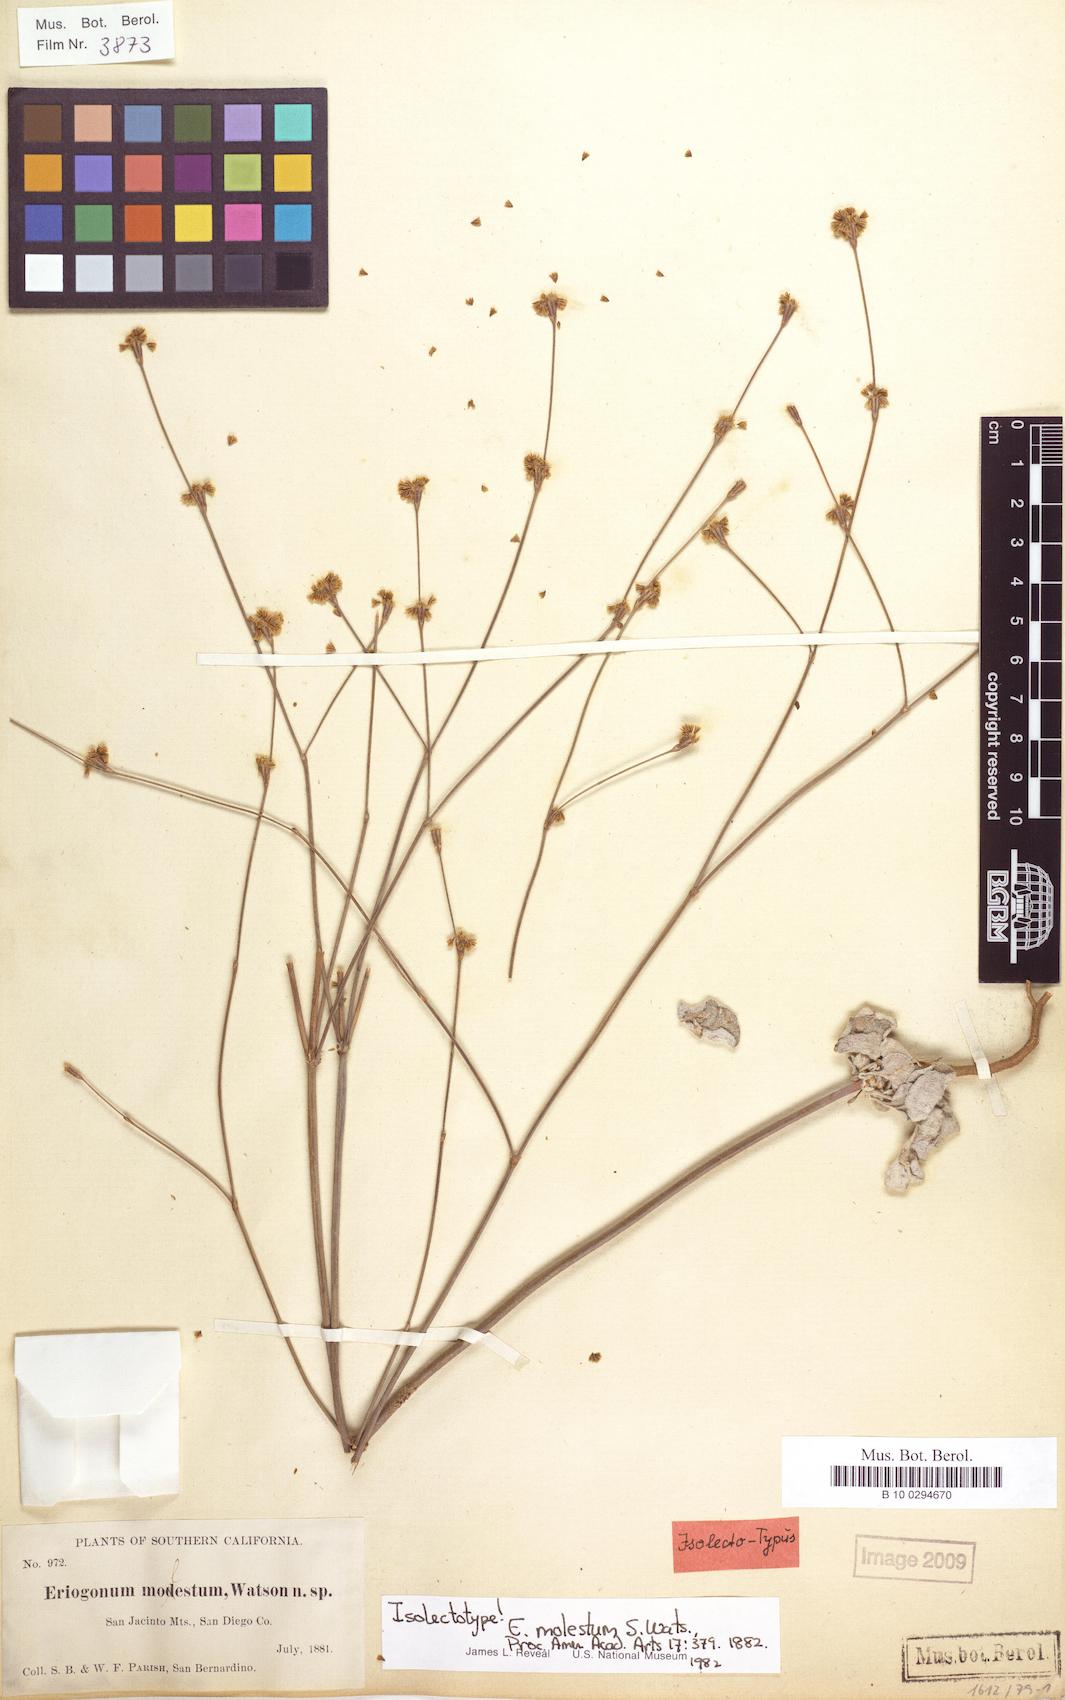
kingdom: Plantae
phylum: Tracheophyta
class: Magnoliopsida
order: Caryophyllales
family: Polygonaceae
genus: Eriogonum
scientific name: Eriogonum molestum
